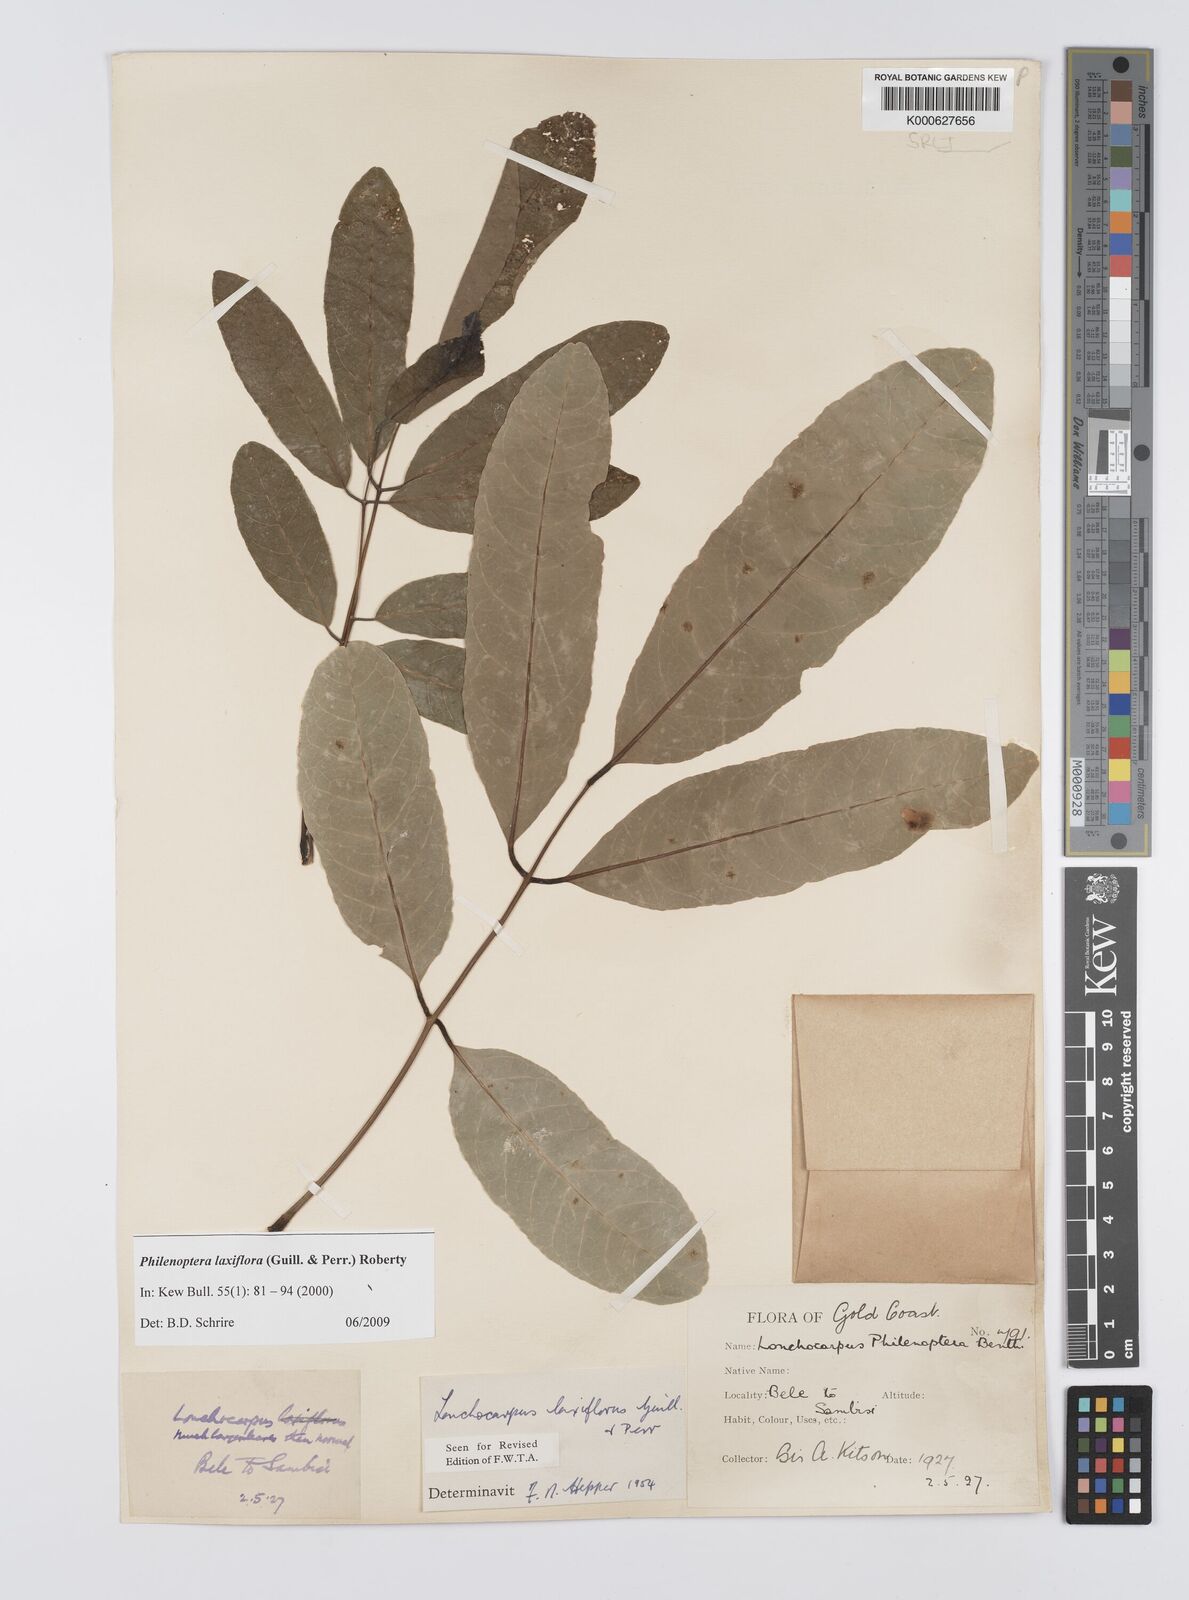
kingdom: Plantae
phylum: Tracheophyta
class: Magnoliopsida
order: Fabales
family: Fabaceae
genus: Philenoptera
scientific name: Philenoptera laxiflora
